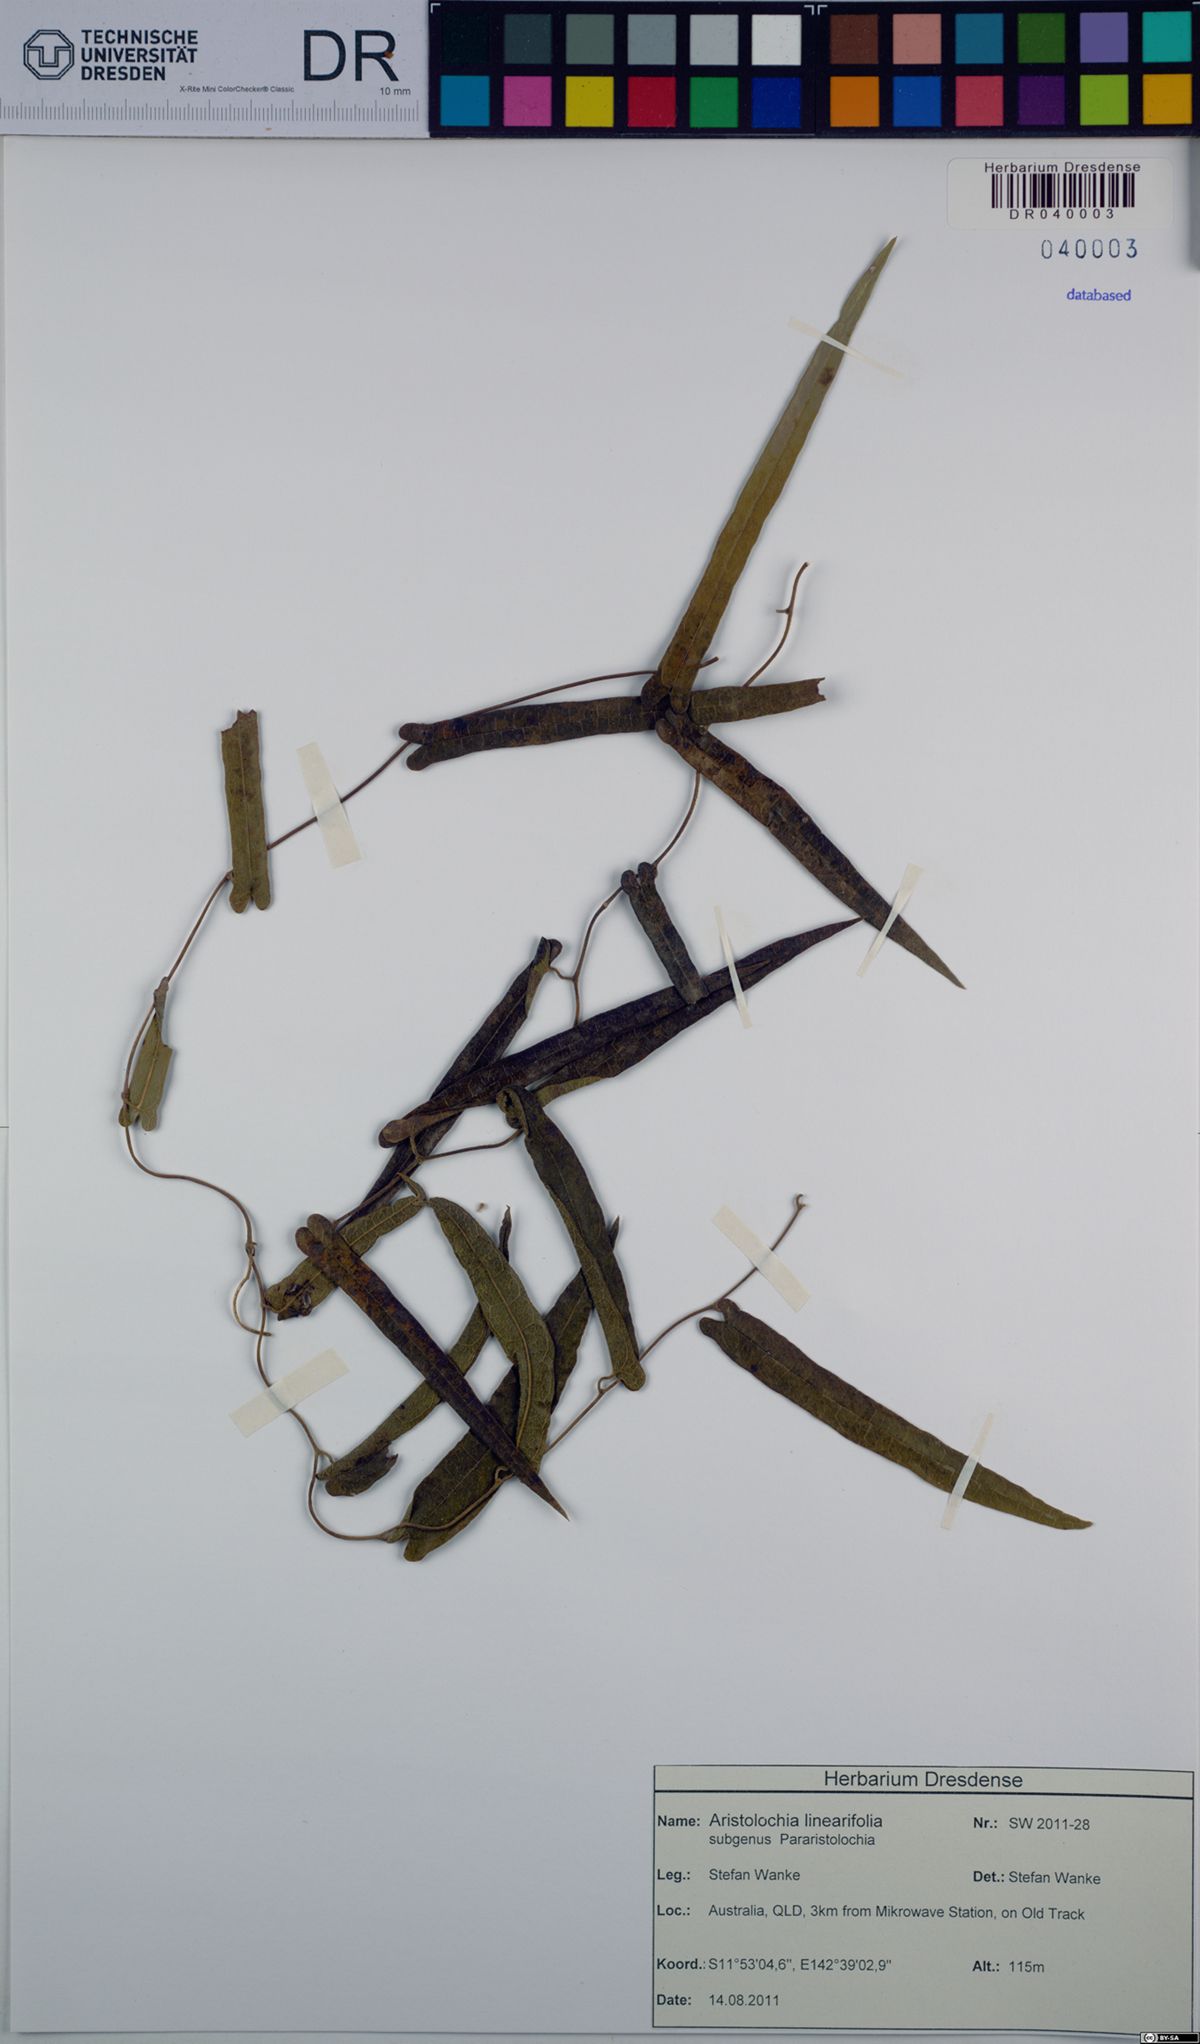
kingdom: Plantae
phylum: Tracheophyta
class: Magnoliopsida
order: Piperales
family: Aristolochiaceae
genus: Aristolochia
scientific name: Aristolochia linearifolia
